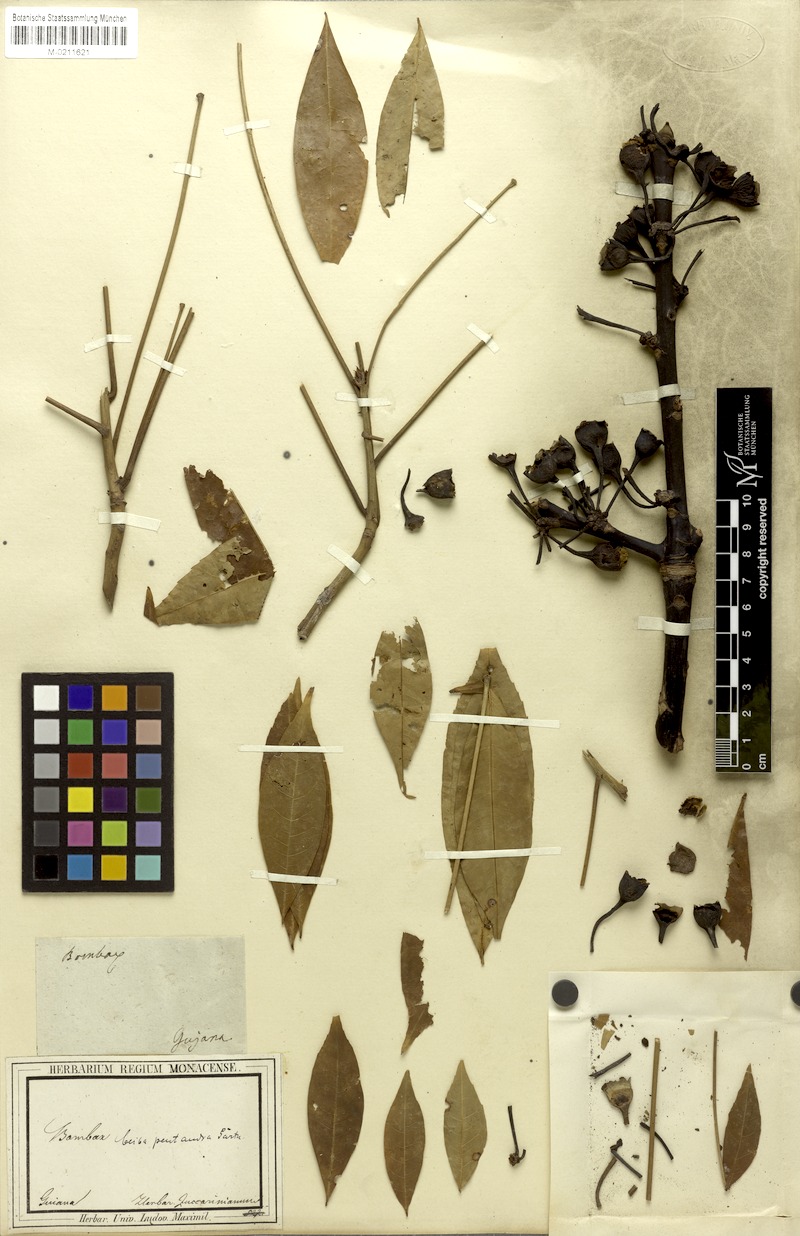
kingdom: Plantae
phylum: Tracheophyta
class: Magnoliopsida
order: Malvales
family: Malvaceae
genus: Ceiba
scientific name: Ceiba pentandra
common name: Kapok
